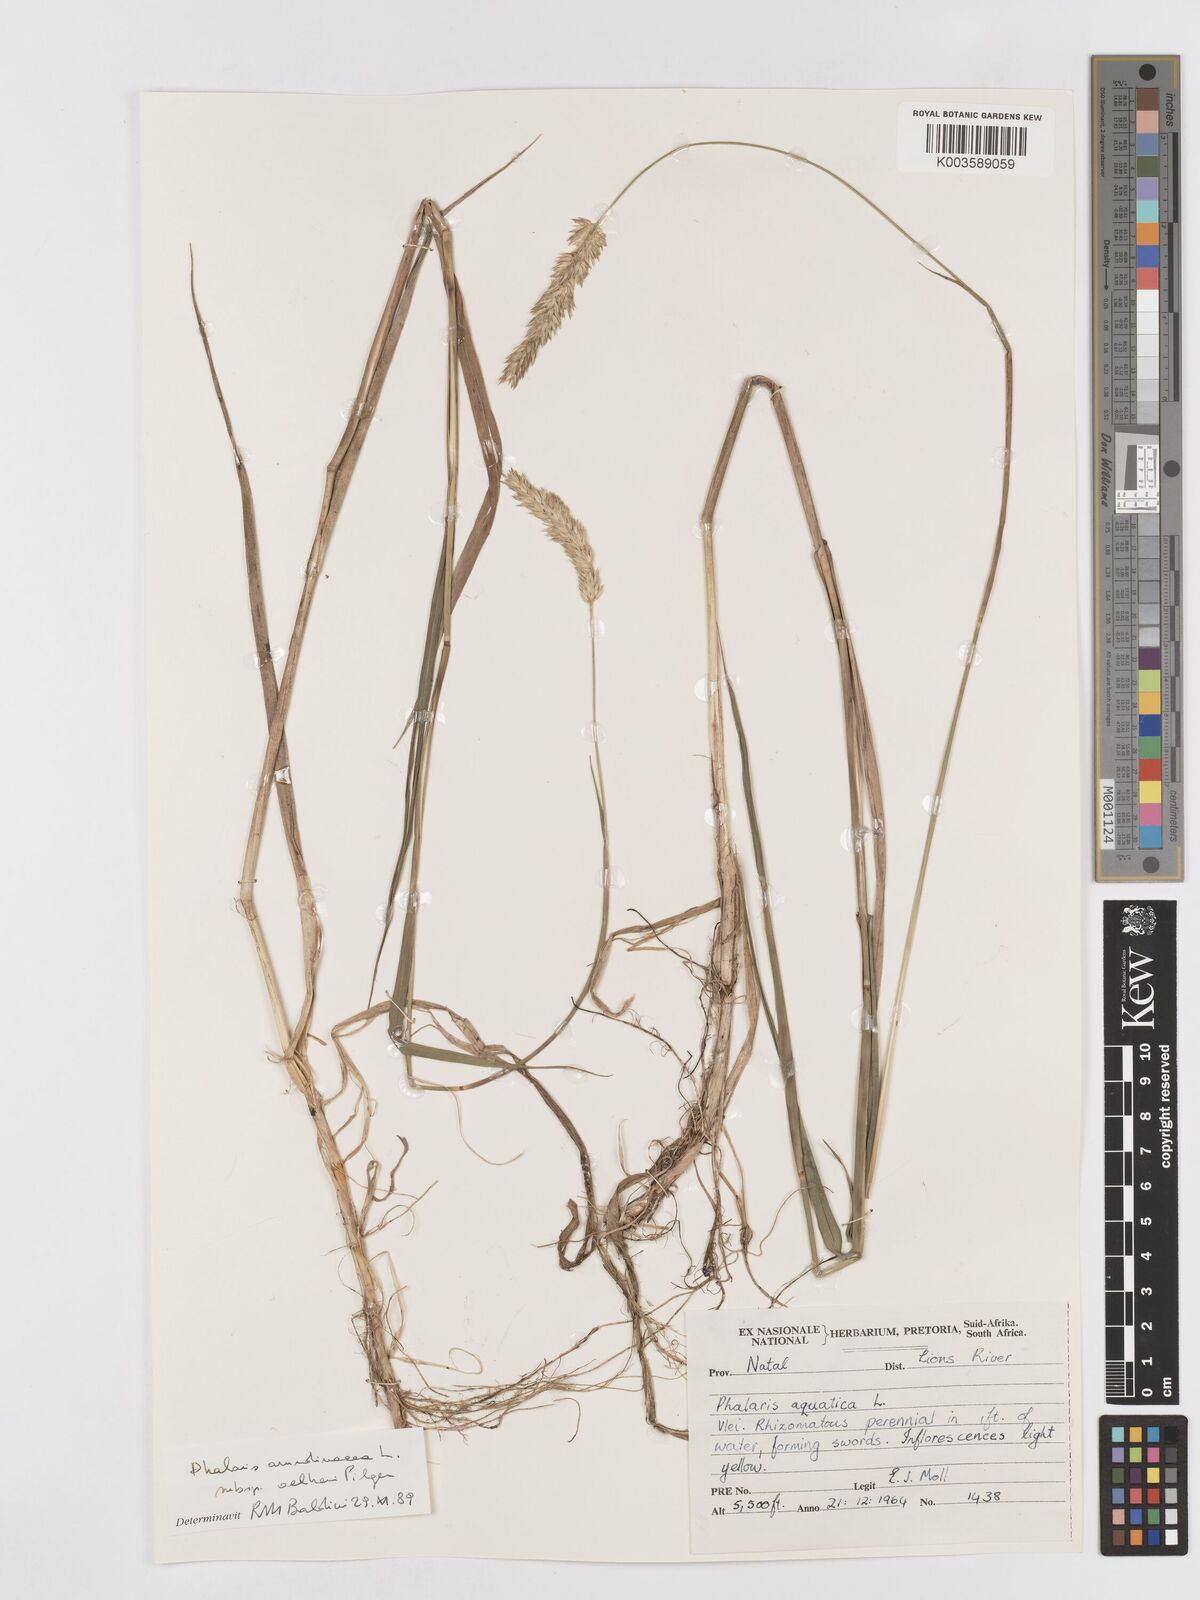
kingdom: Plantae
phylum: Tracheophyta
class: Liliopsida
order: Poales
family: Poaceae
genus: Phalaris
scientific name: Phalaris aquatica
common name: Bulbous canary-grass
